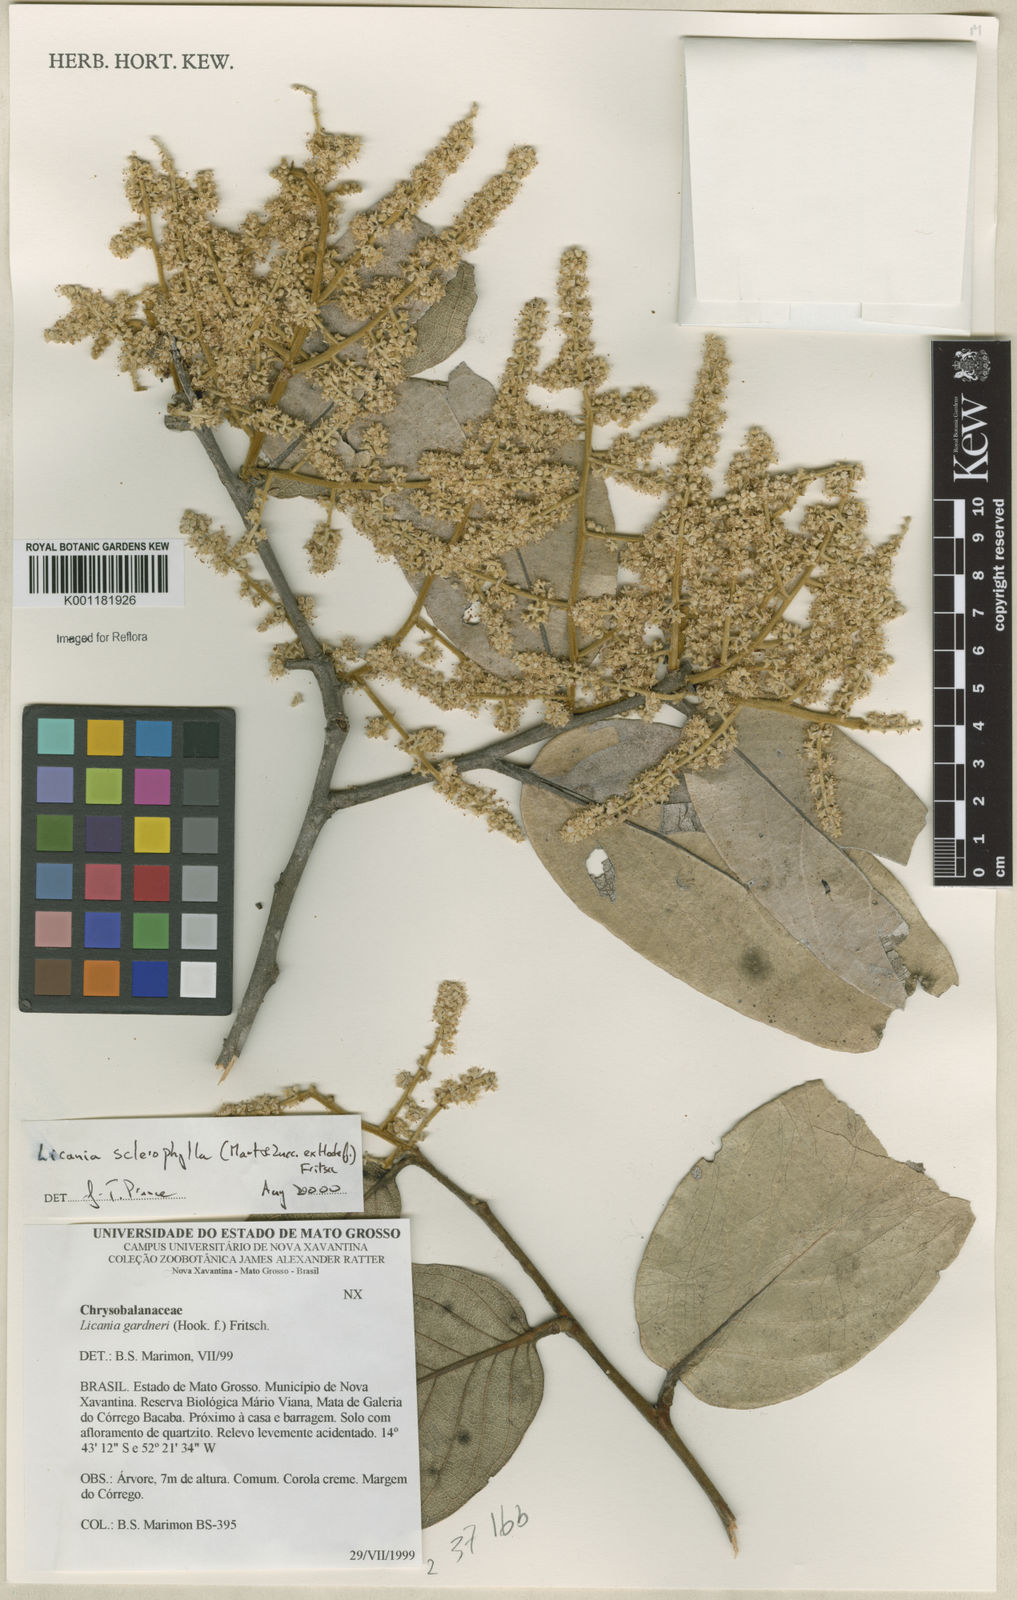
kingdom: Plantae
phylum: Tracheophyta
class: Magnoliopsida
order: Malpighiales
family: Chrysobalanaceae
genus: Leptobalanus
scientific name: Leptobalanus sclerophyllus
